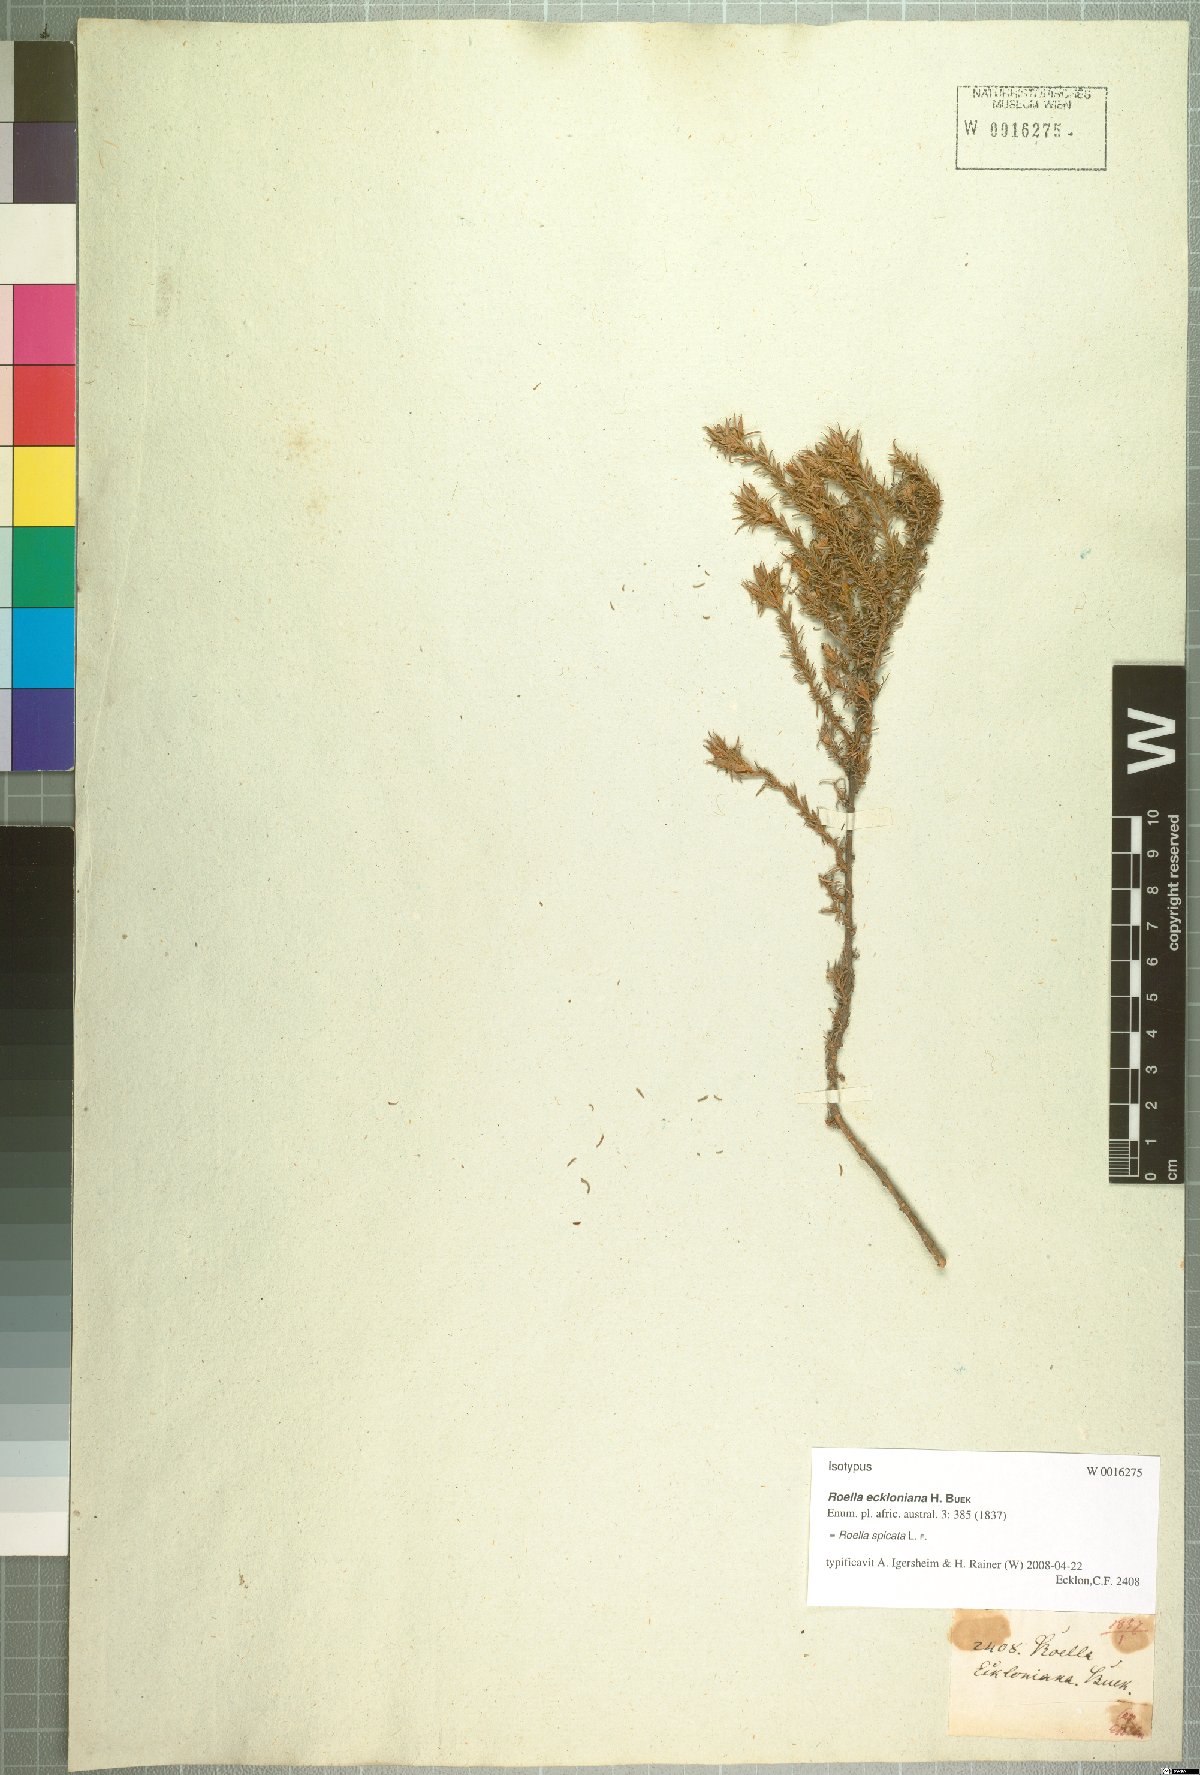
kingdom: Plantae
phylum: Tracheophyta
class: Magnoliopsida
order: Asterales
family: Campanulaceae
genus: Roella
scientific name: Roella spicata
